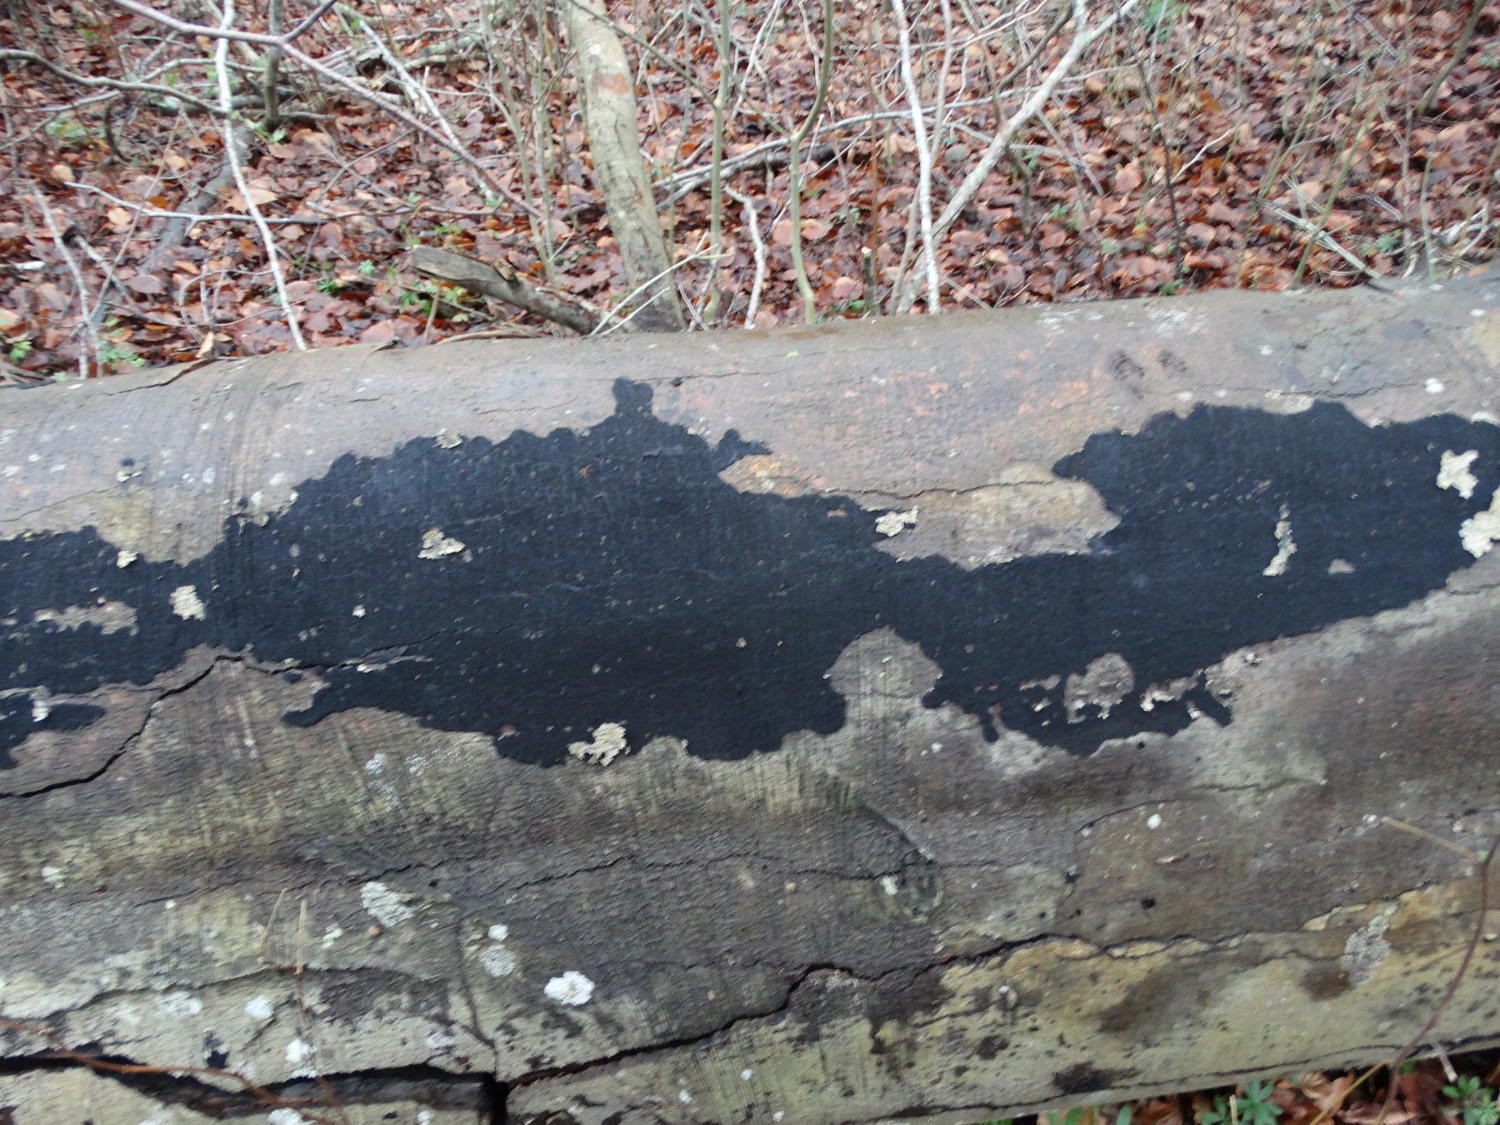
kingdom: Fungi
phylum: Ascomycota
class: Sordariomycetes
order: Xylariales
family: Diatrypaceae
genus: Eutypa
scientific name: Eutypa spinosa
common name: grov kulskorpe
